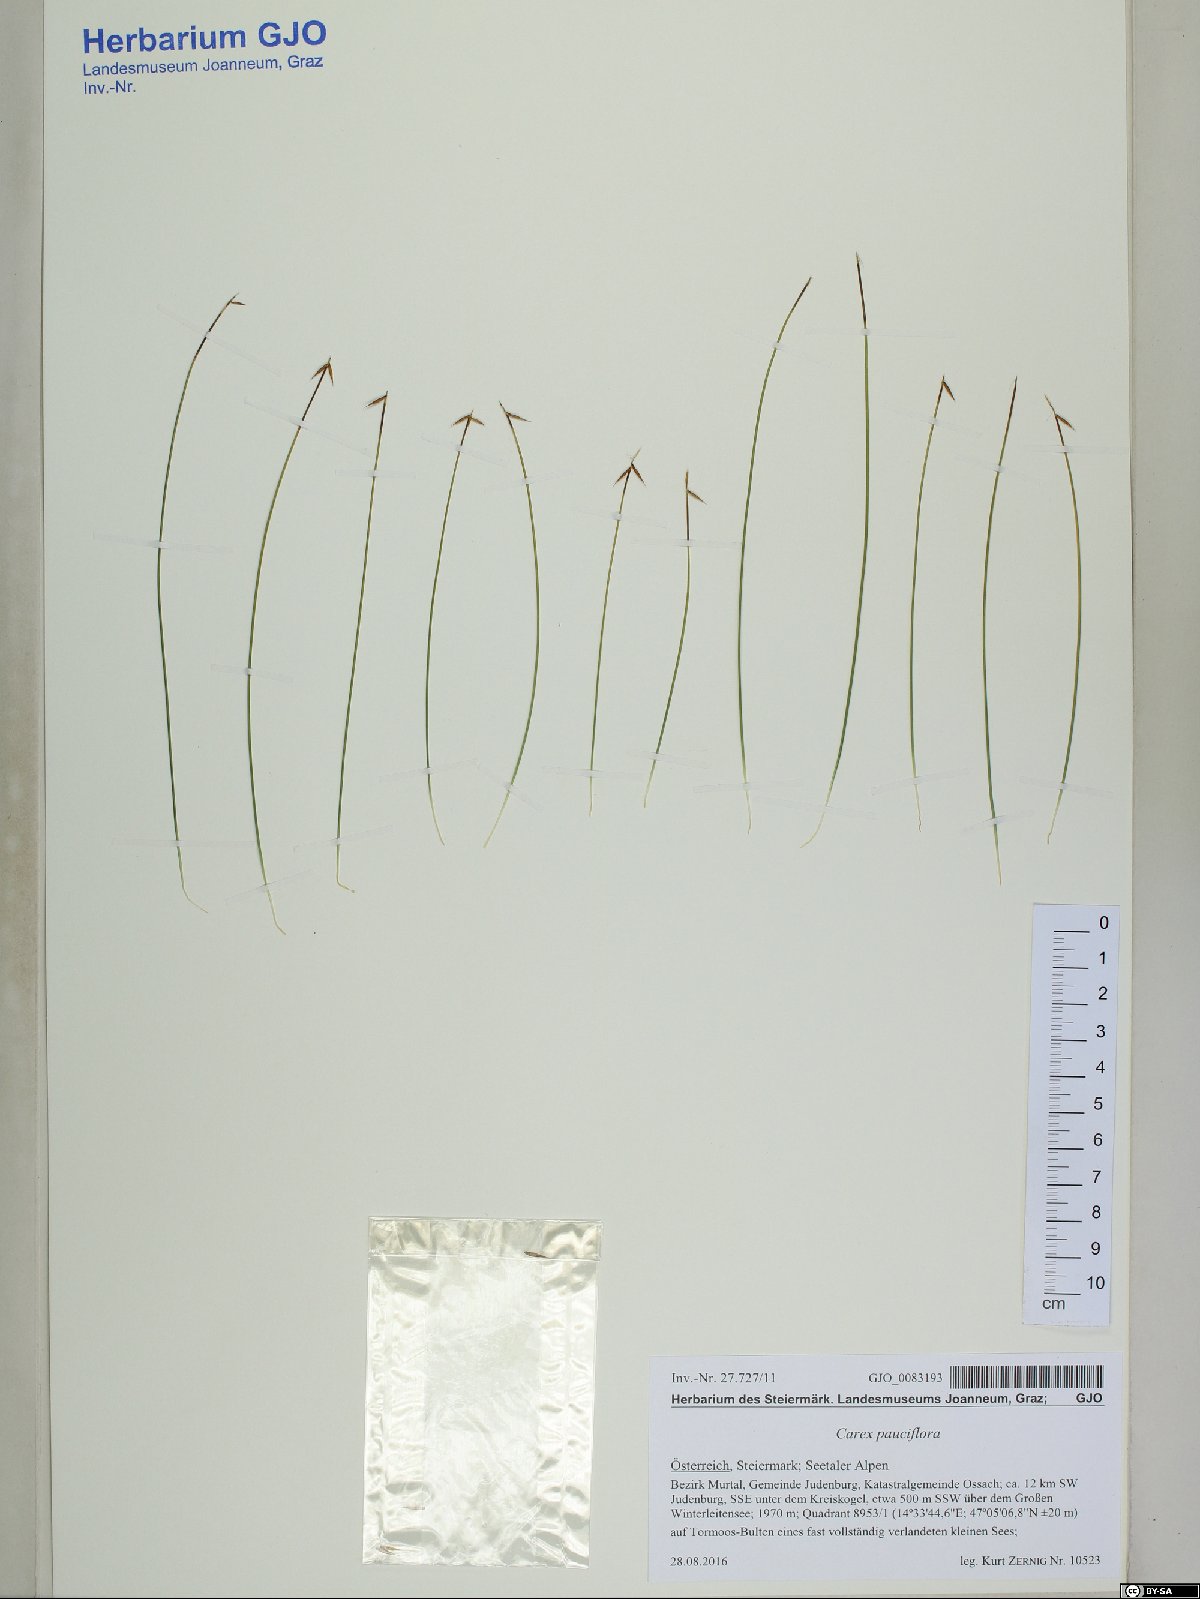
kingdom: Plantae
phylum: Tracheophyta
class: Liliopsida
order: Poales
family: Cyperaceae
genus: Carex
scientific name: Carex pauciflora
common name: Few-flowered sedge
